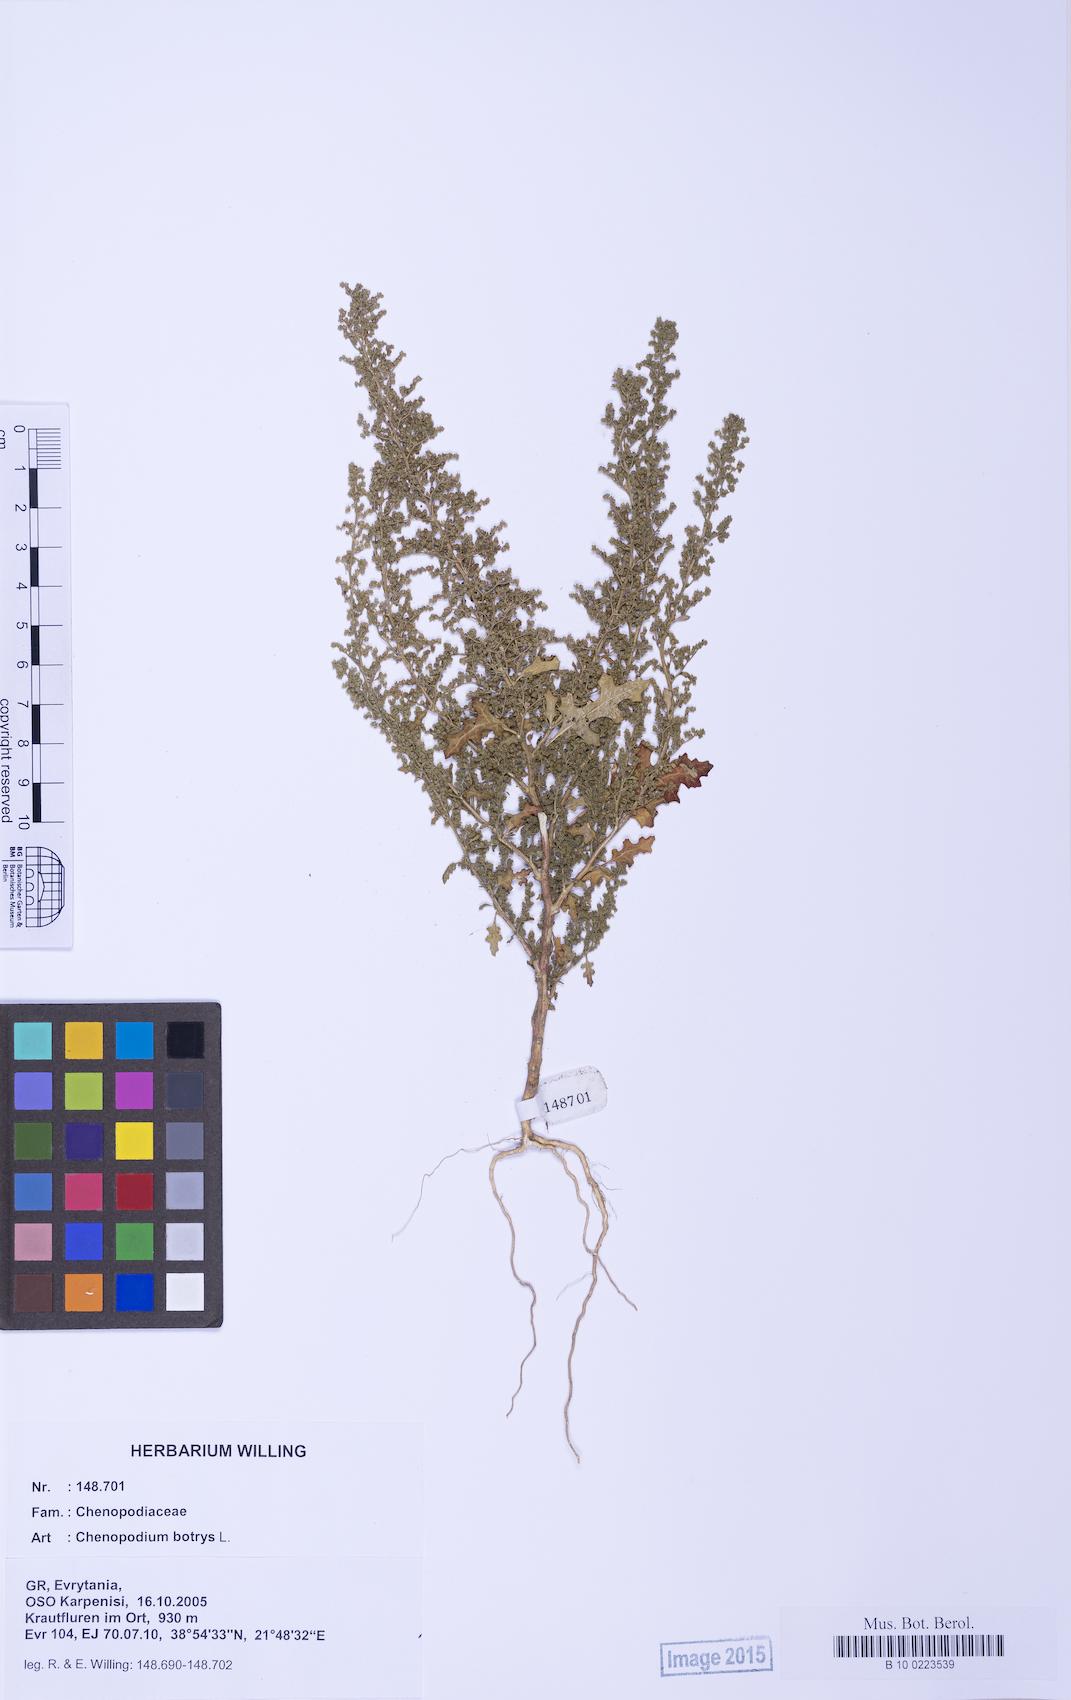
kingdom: Plantae
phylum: Tracheophyta
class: Magnoliopsida
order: Caryophyllales
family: Amaranthaceae
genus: Dysphania
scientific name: Dysphania botrys
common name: Feather-geranium
